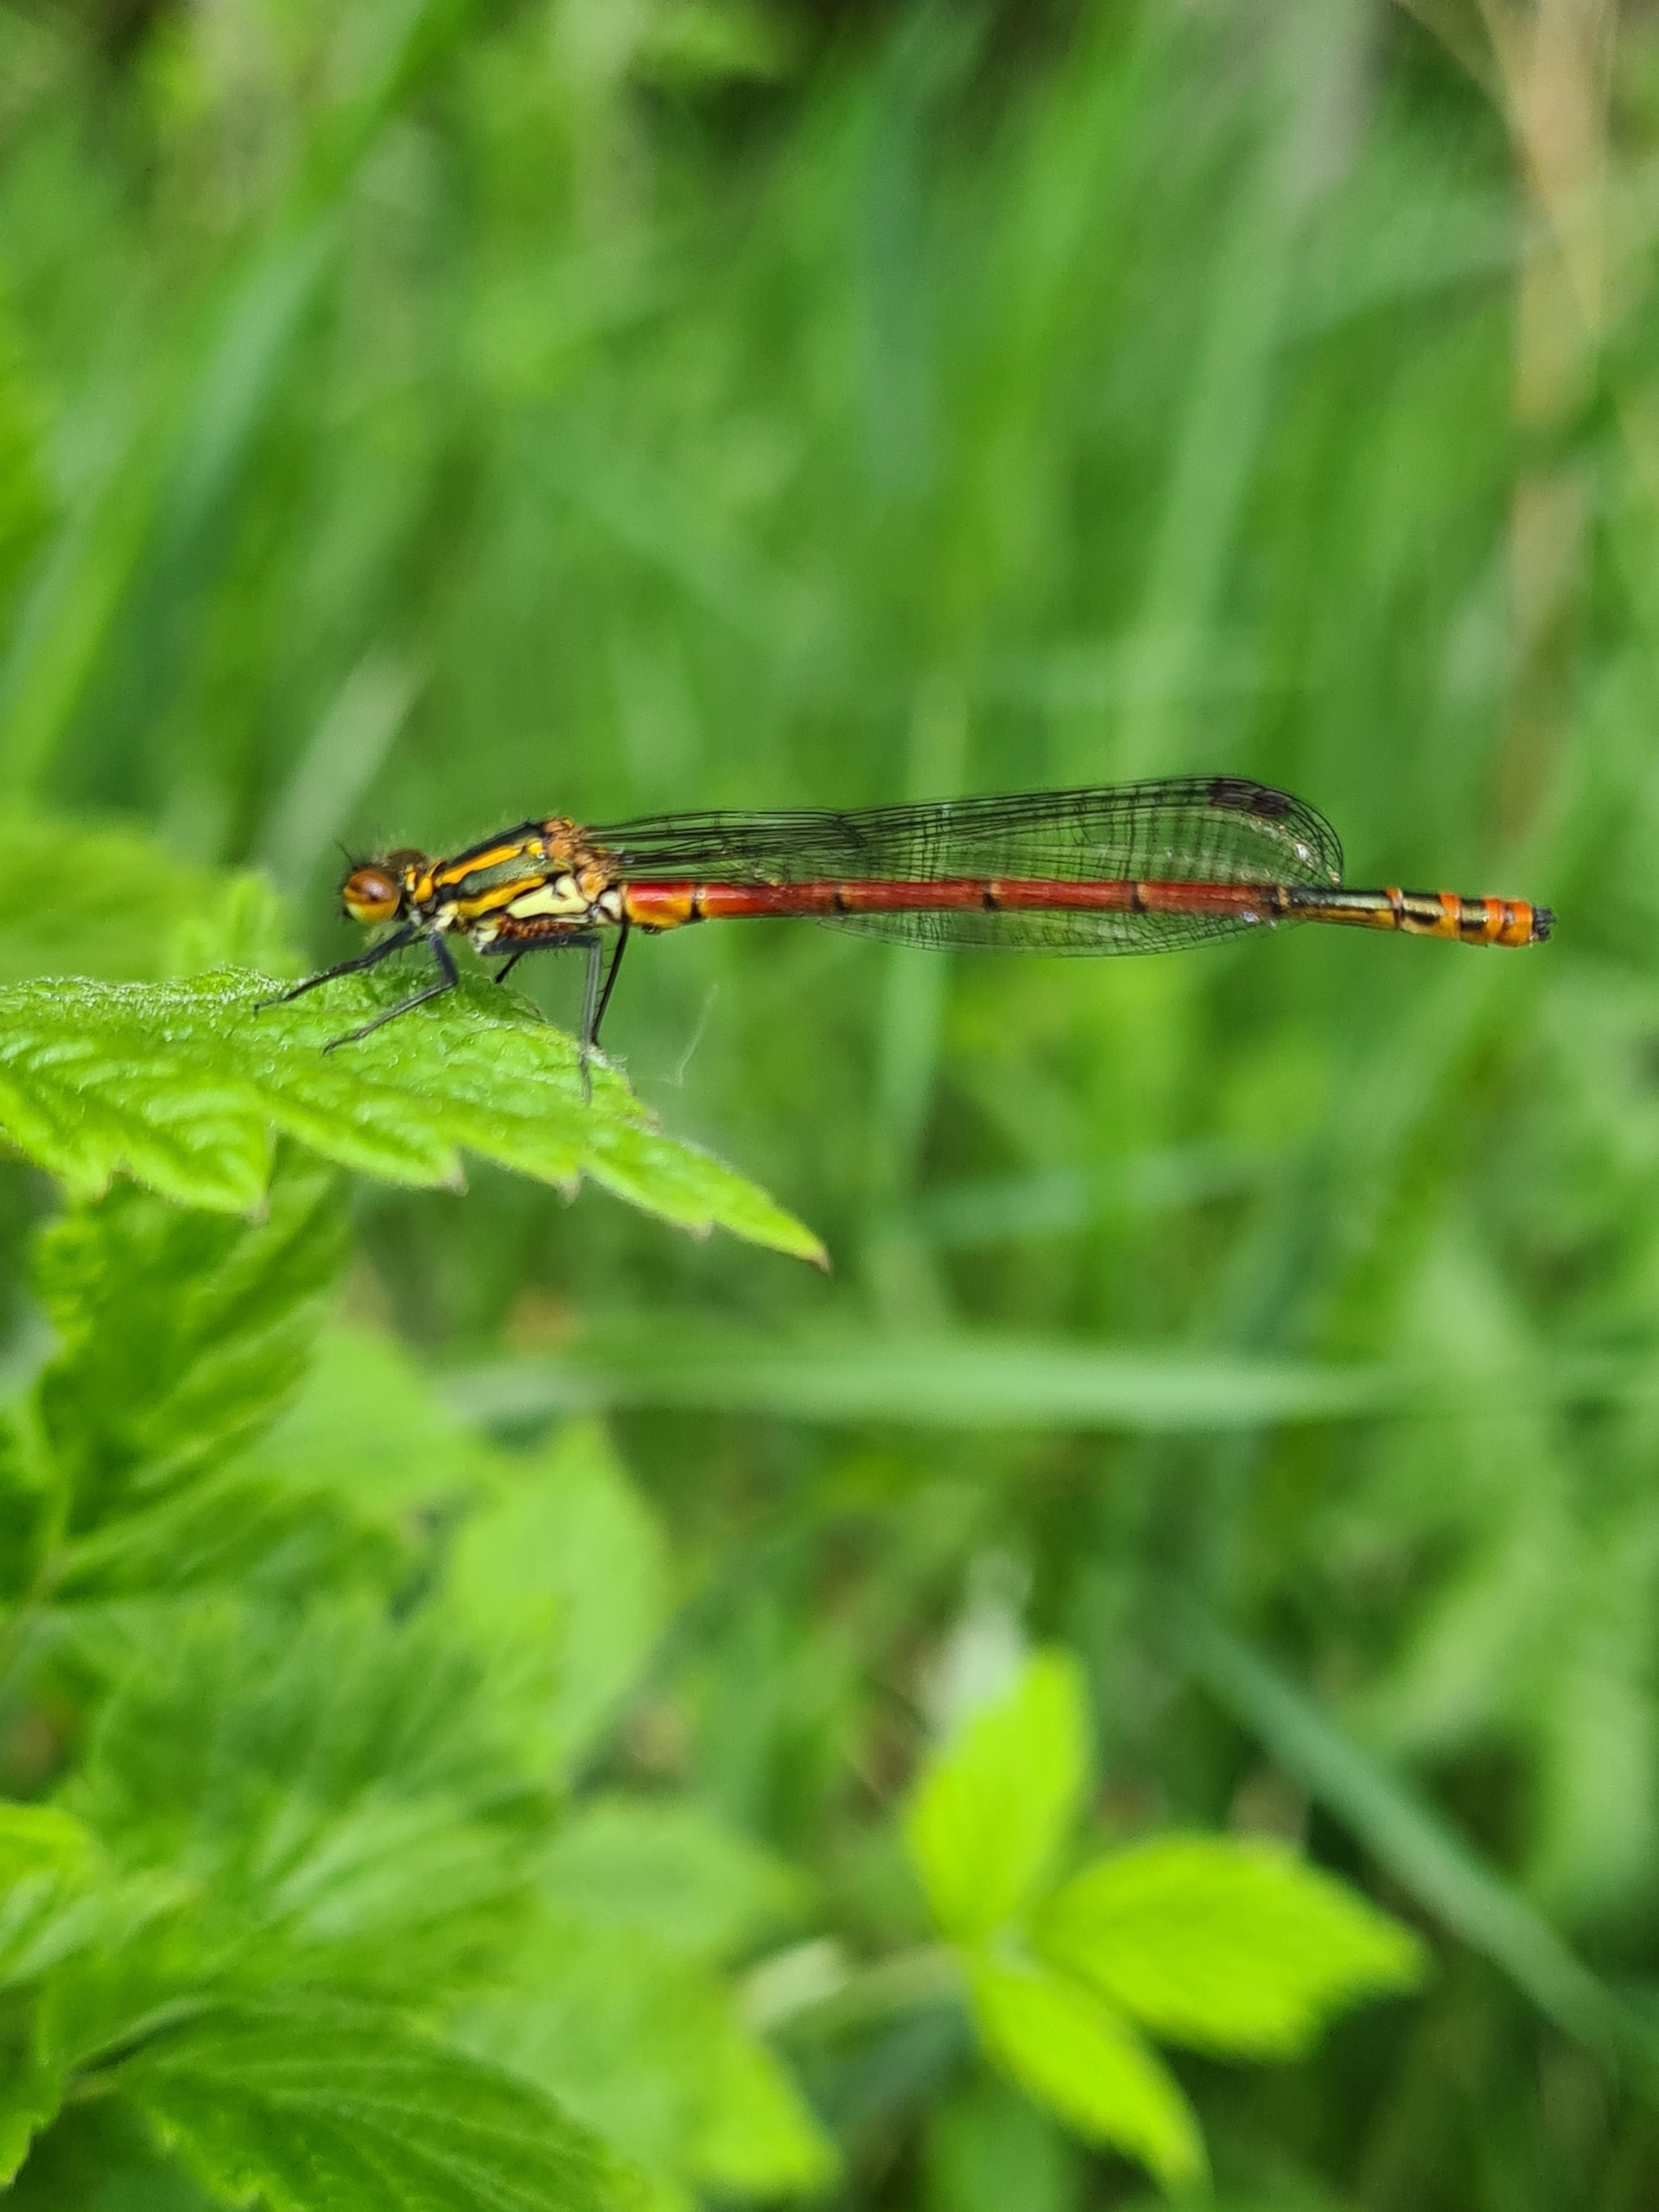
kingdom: Animalia
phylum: Arthropoda
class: Insecta
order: Odonata
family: Coenagrionidae
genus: Pyrrhosoma
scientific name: Pyrrhosoma nymphula
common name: Rød vandnymfe
